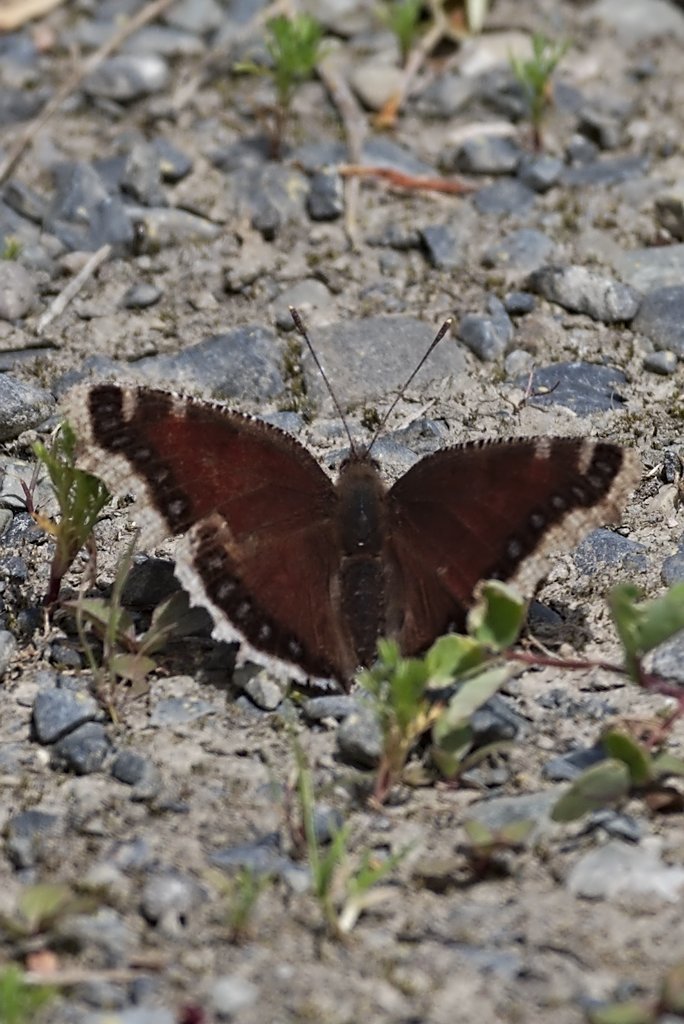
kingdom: Animalia
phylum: Arthropoda
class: Insecta
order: Lepidoptera
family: Nymphalidae
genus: Nymphalis
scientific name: Nymphalis antiopa
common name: Mourning Cloak
